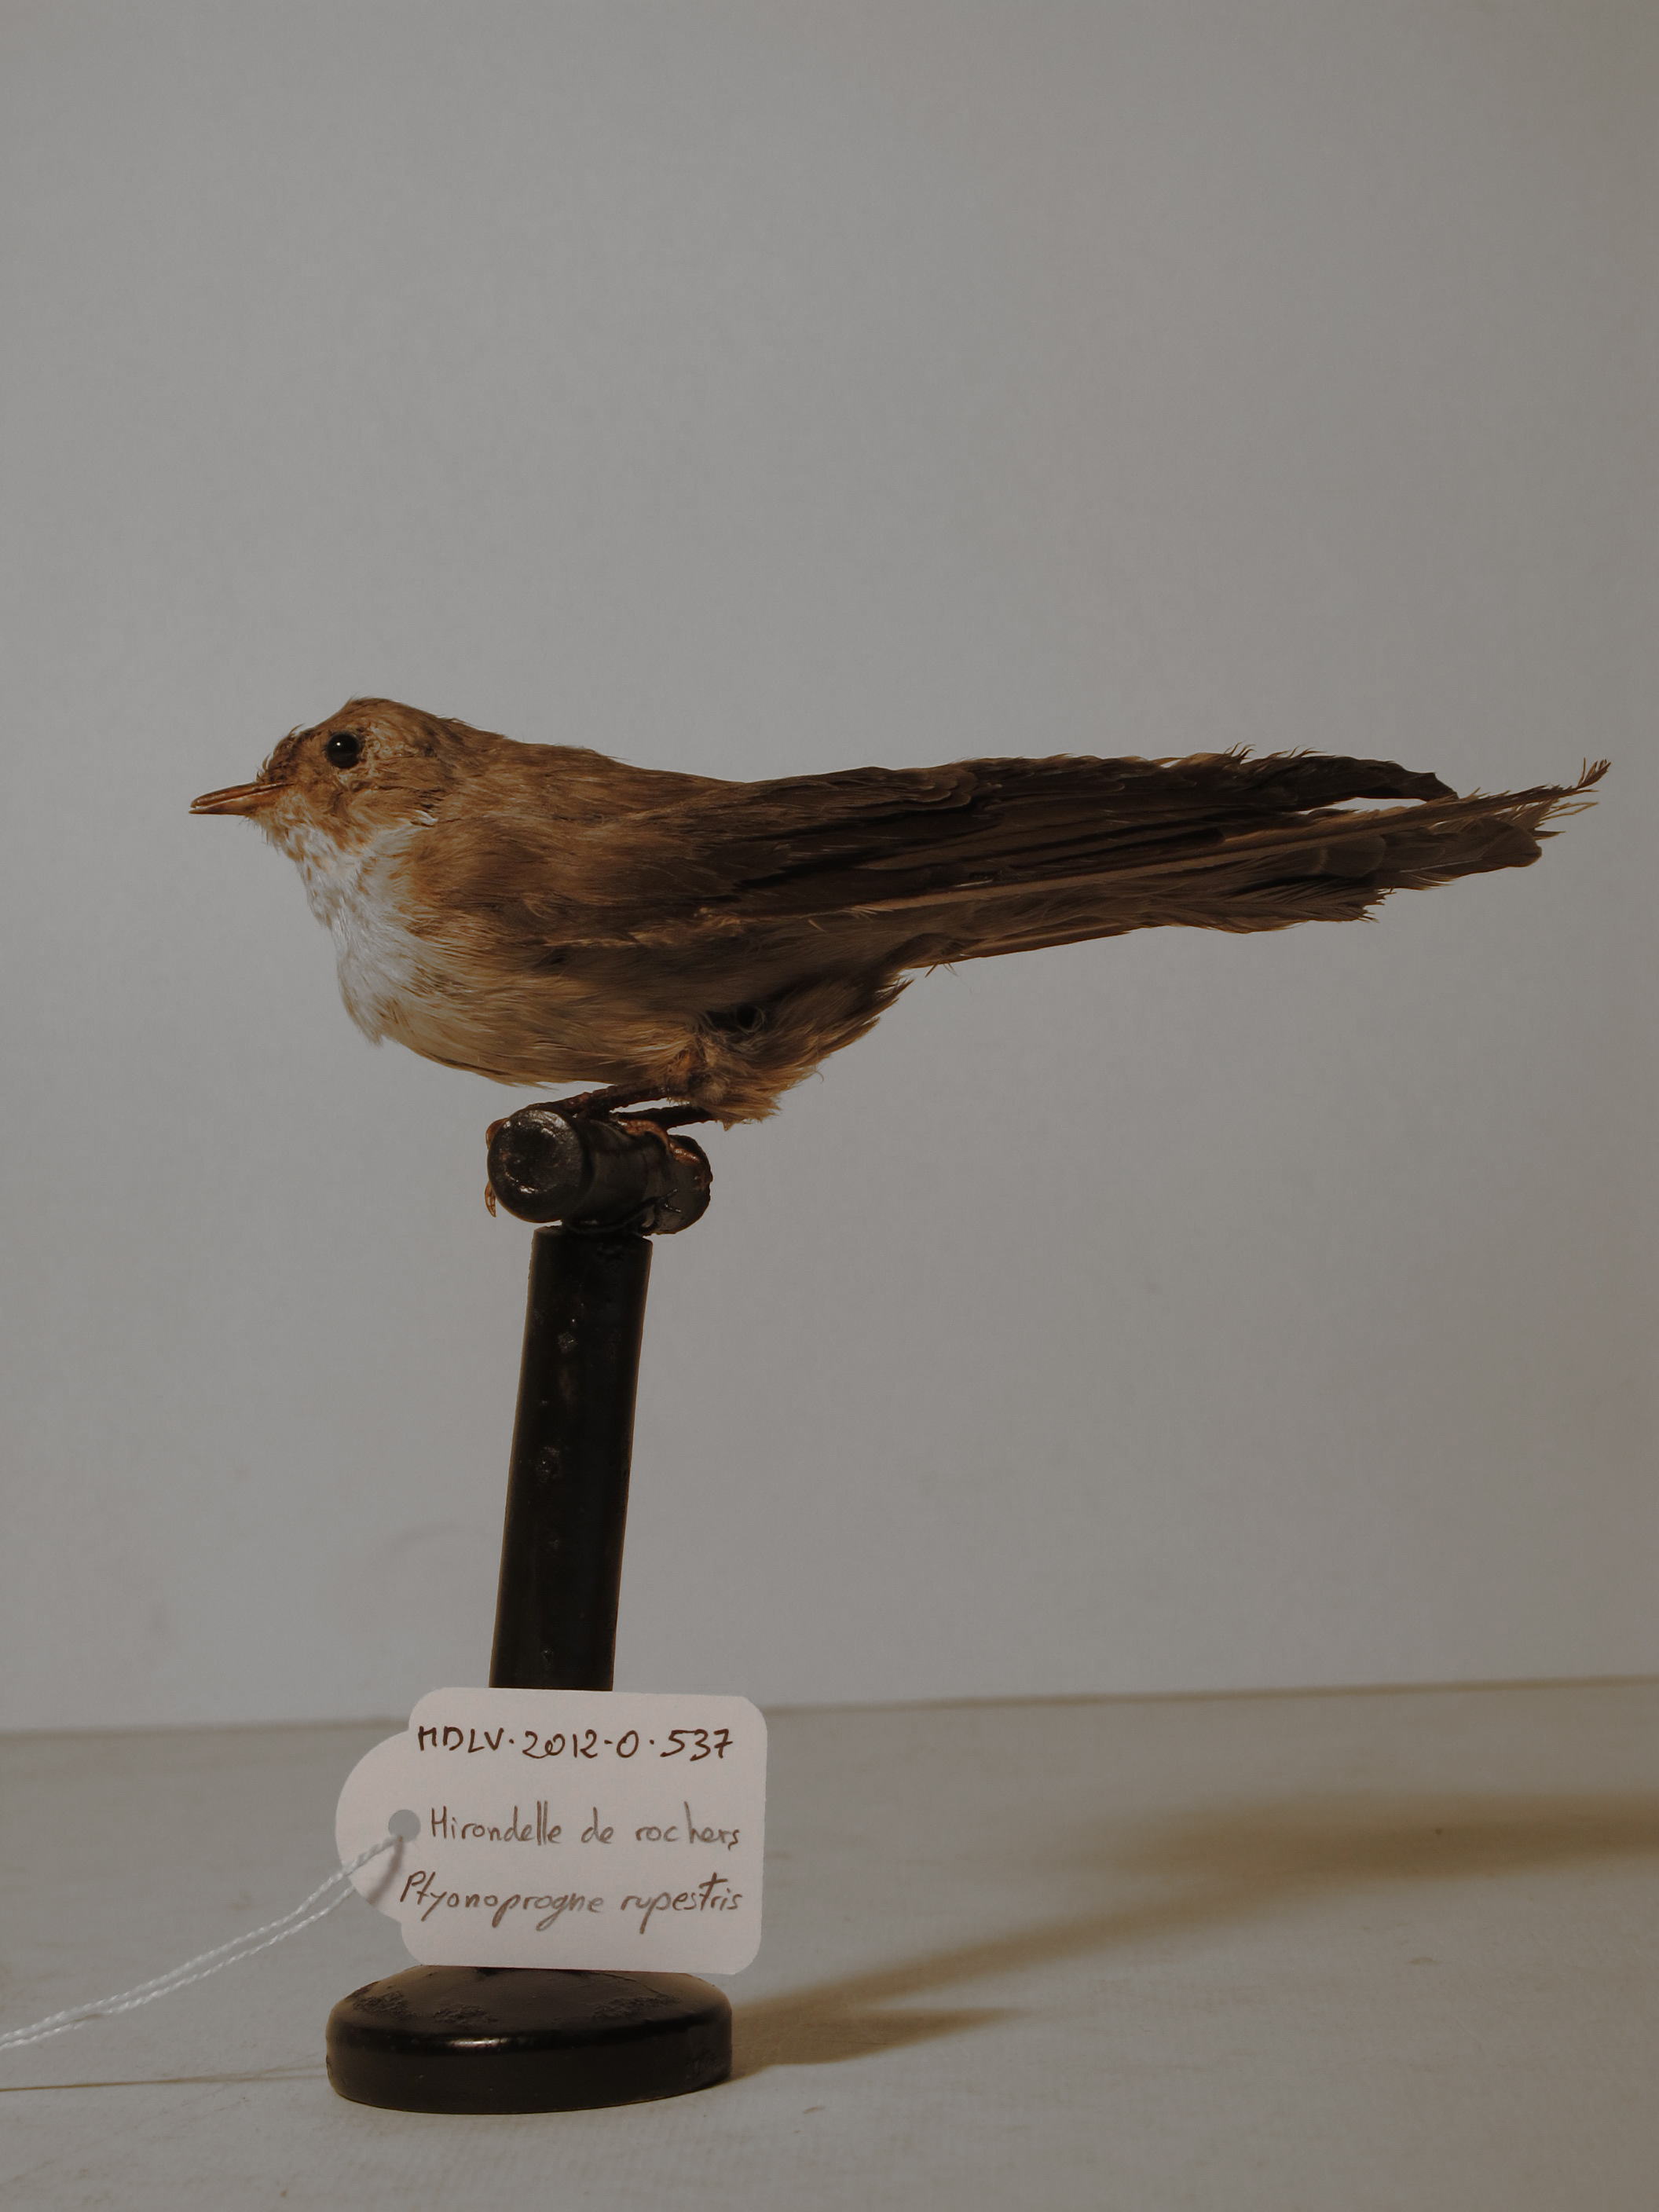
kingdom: Animalia
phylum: Chordata
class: Aves
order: Passeriformes
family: Hirundinidae
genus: Ptyonoprogne
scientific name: Ptyonoprogne rupestris
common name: Eurasian Crag Martin
